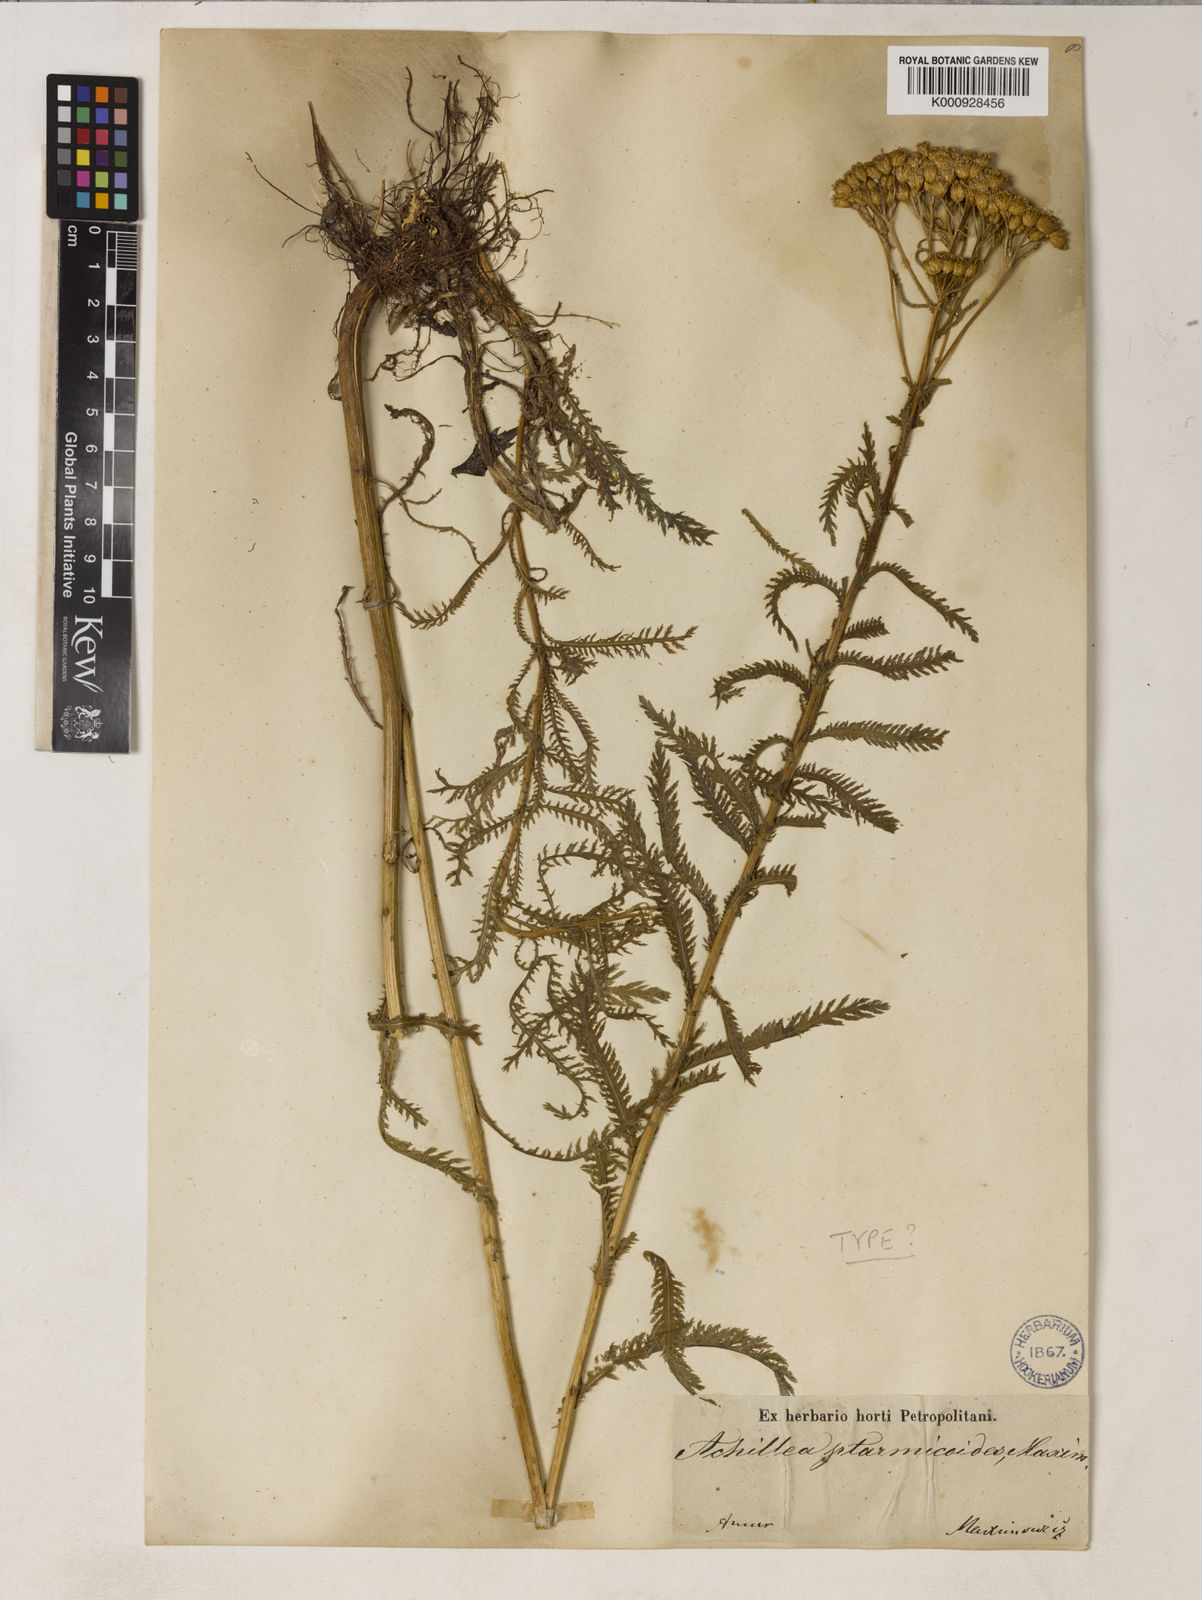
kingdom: Plantae
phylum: Tracheophyta
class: Magnoliopsida
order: Asterales
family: Asteraceae
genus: Achillea
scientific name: Achillea ptarmicoides
